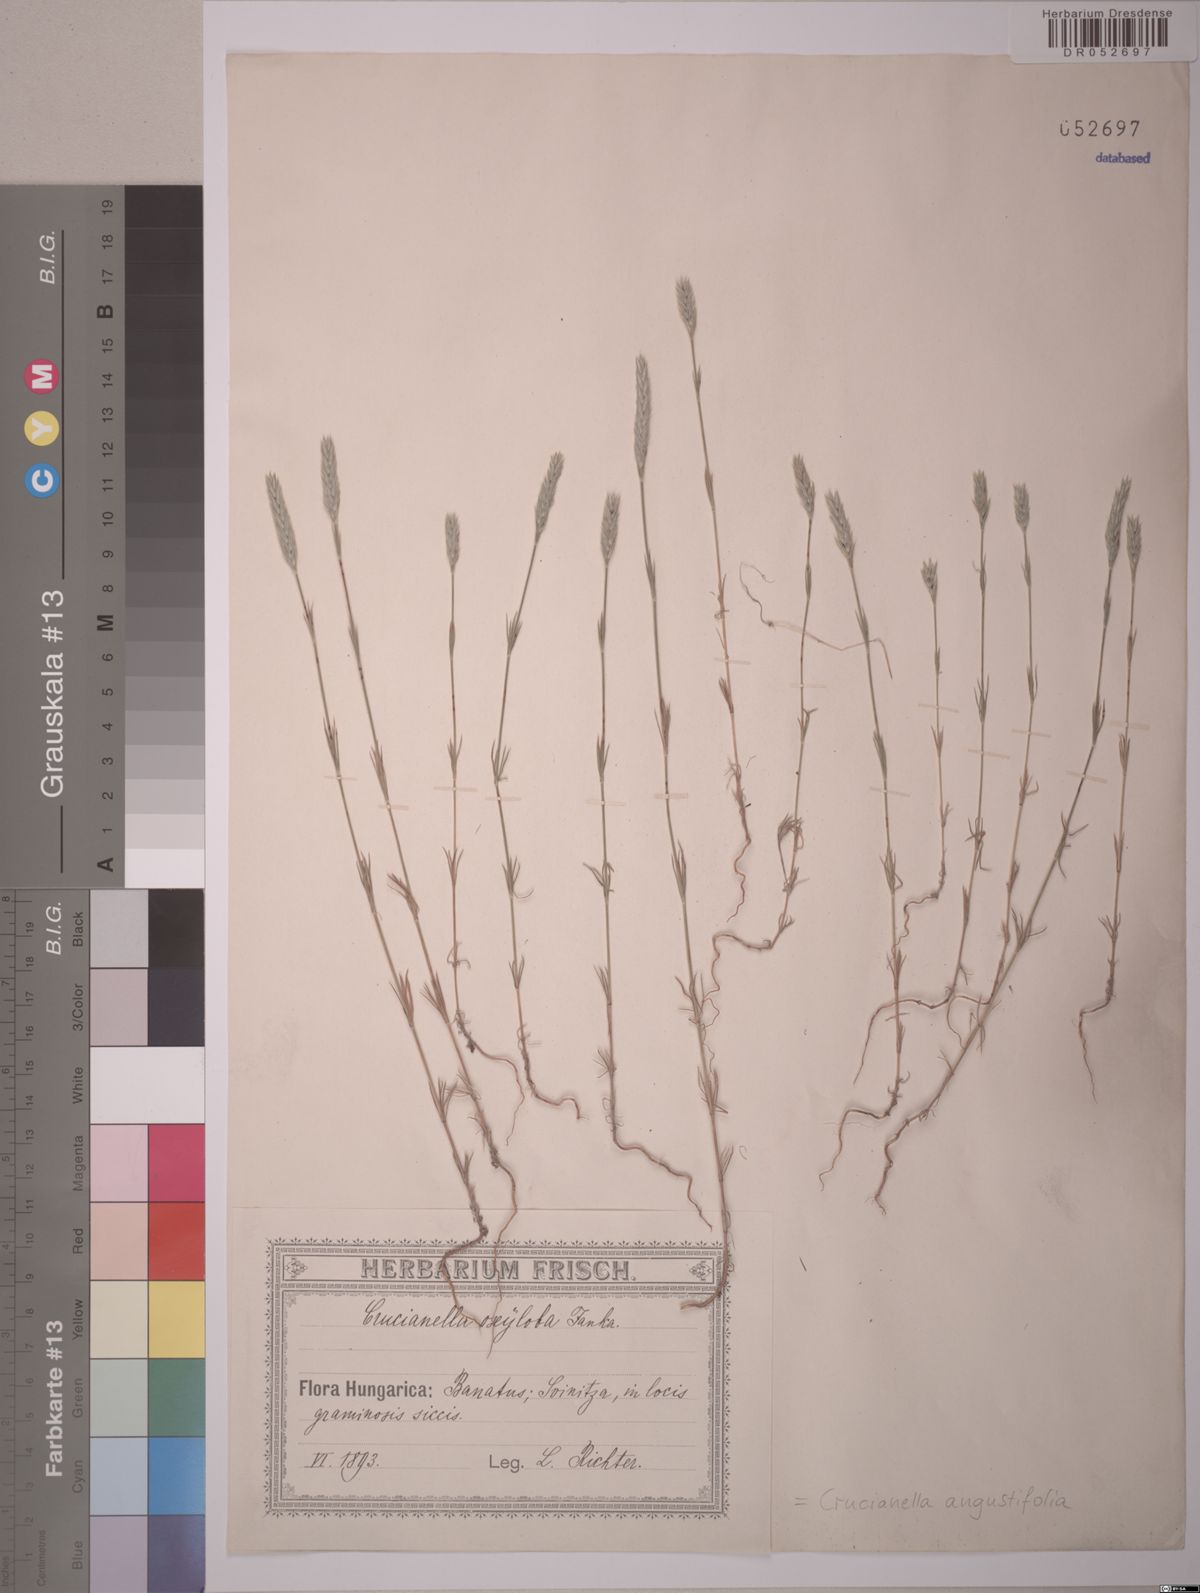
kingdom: Plantae
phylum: Tracheophyta
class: Magnoliopsida
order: Gentianales
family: Rubiaceae
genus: Crucianella
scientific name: Crucianella angustifolia
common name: Narrowleaf crucianella
